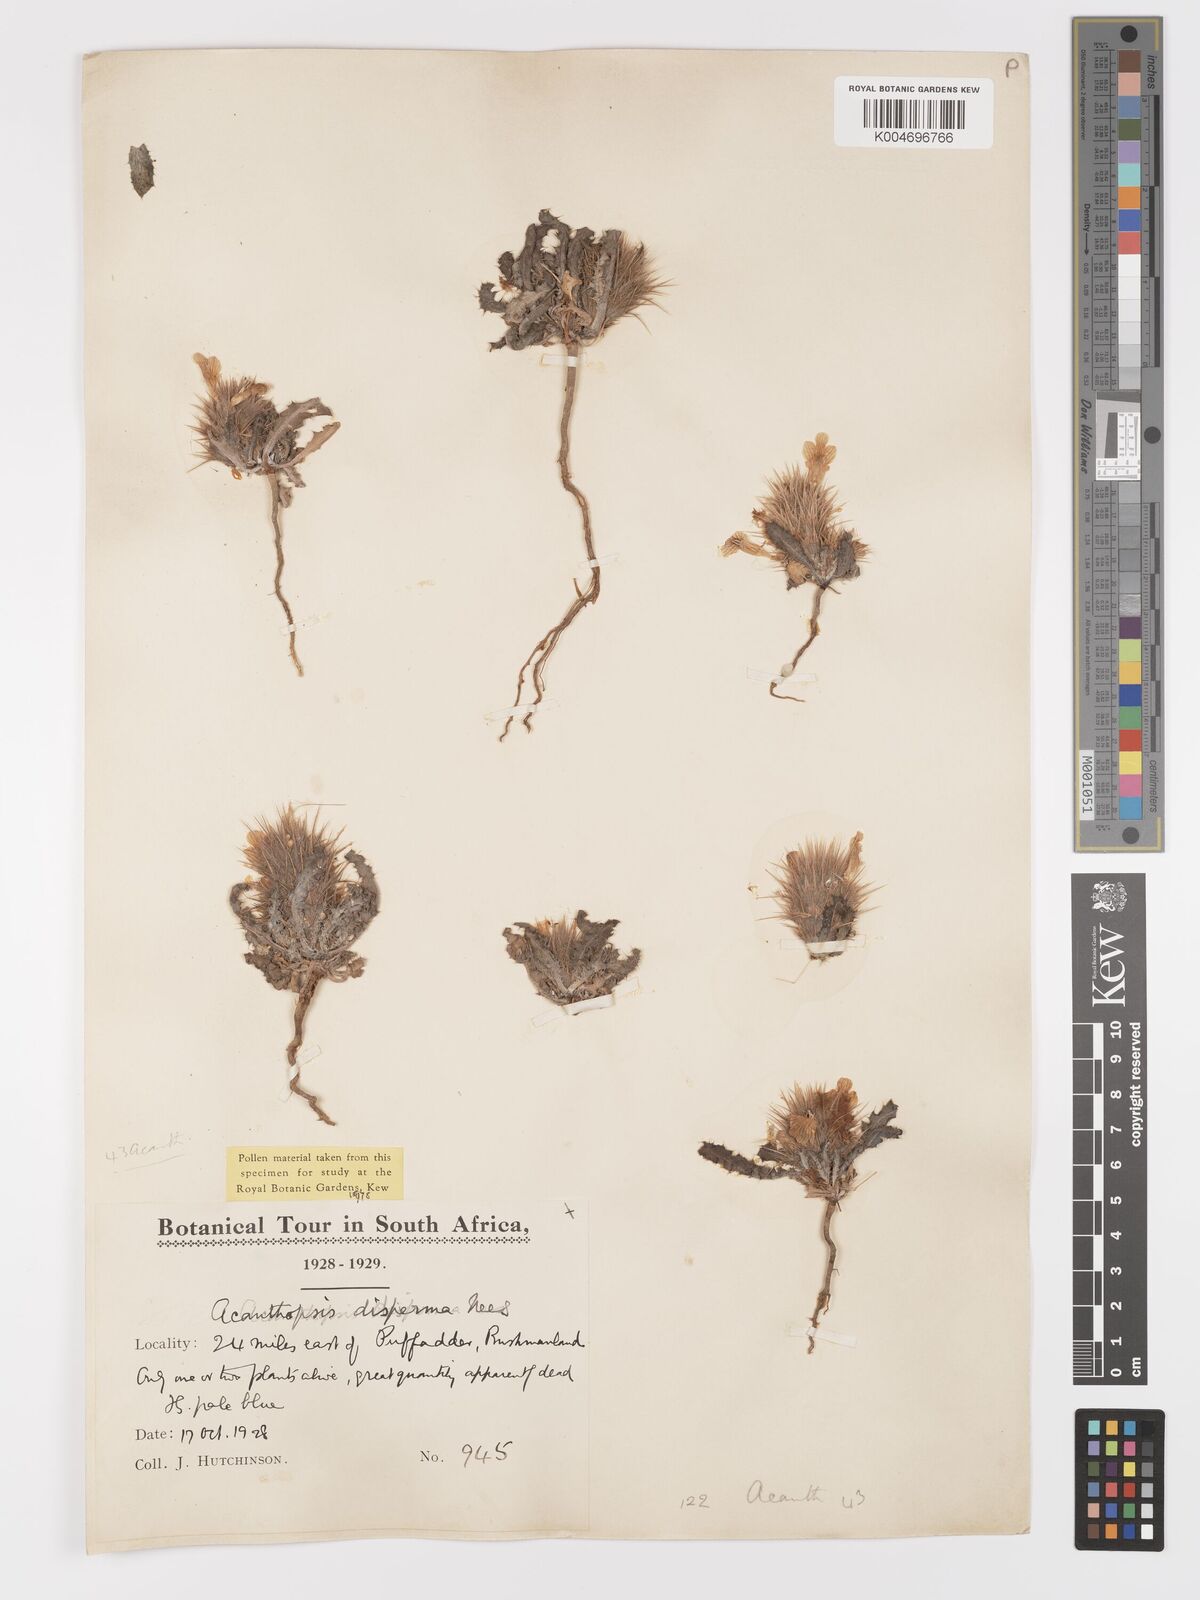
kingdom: Plantae
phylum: Tracheophyta
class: Magnoliopsida
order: Lamiales
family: Acanthaceae
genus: Acanthopsis
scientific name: Acanthopsis disperma
